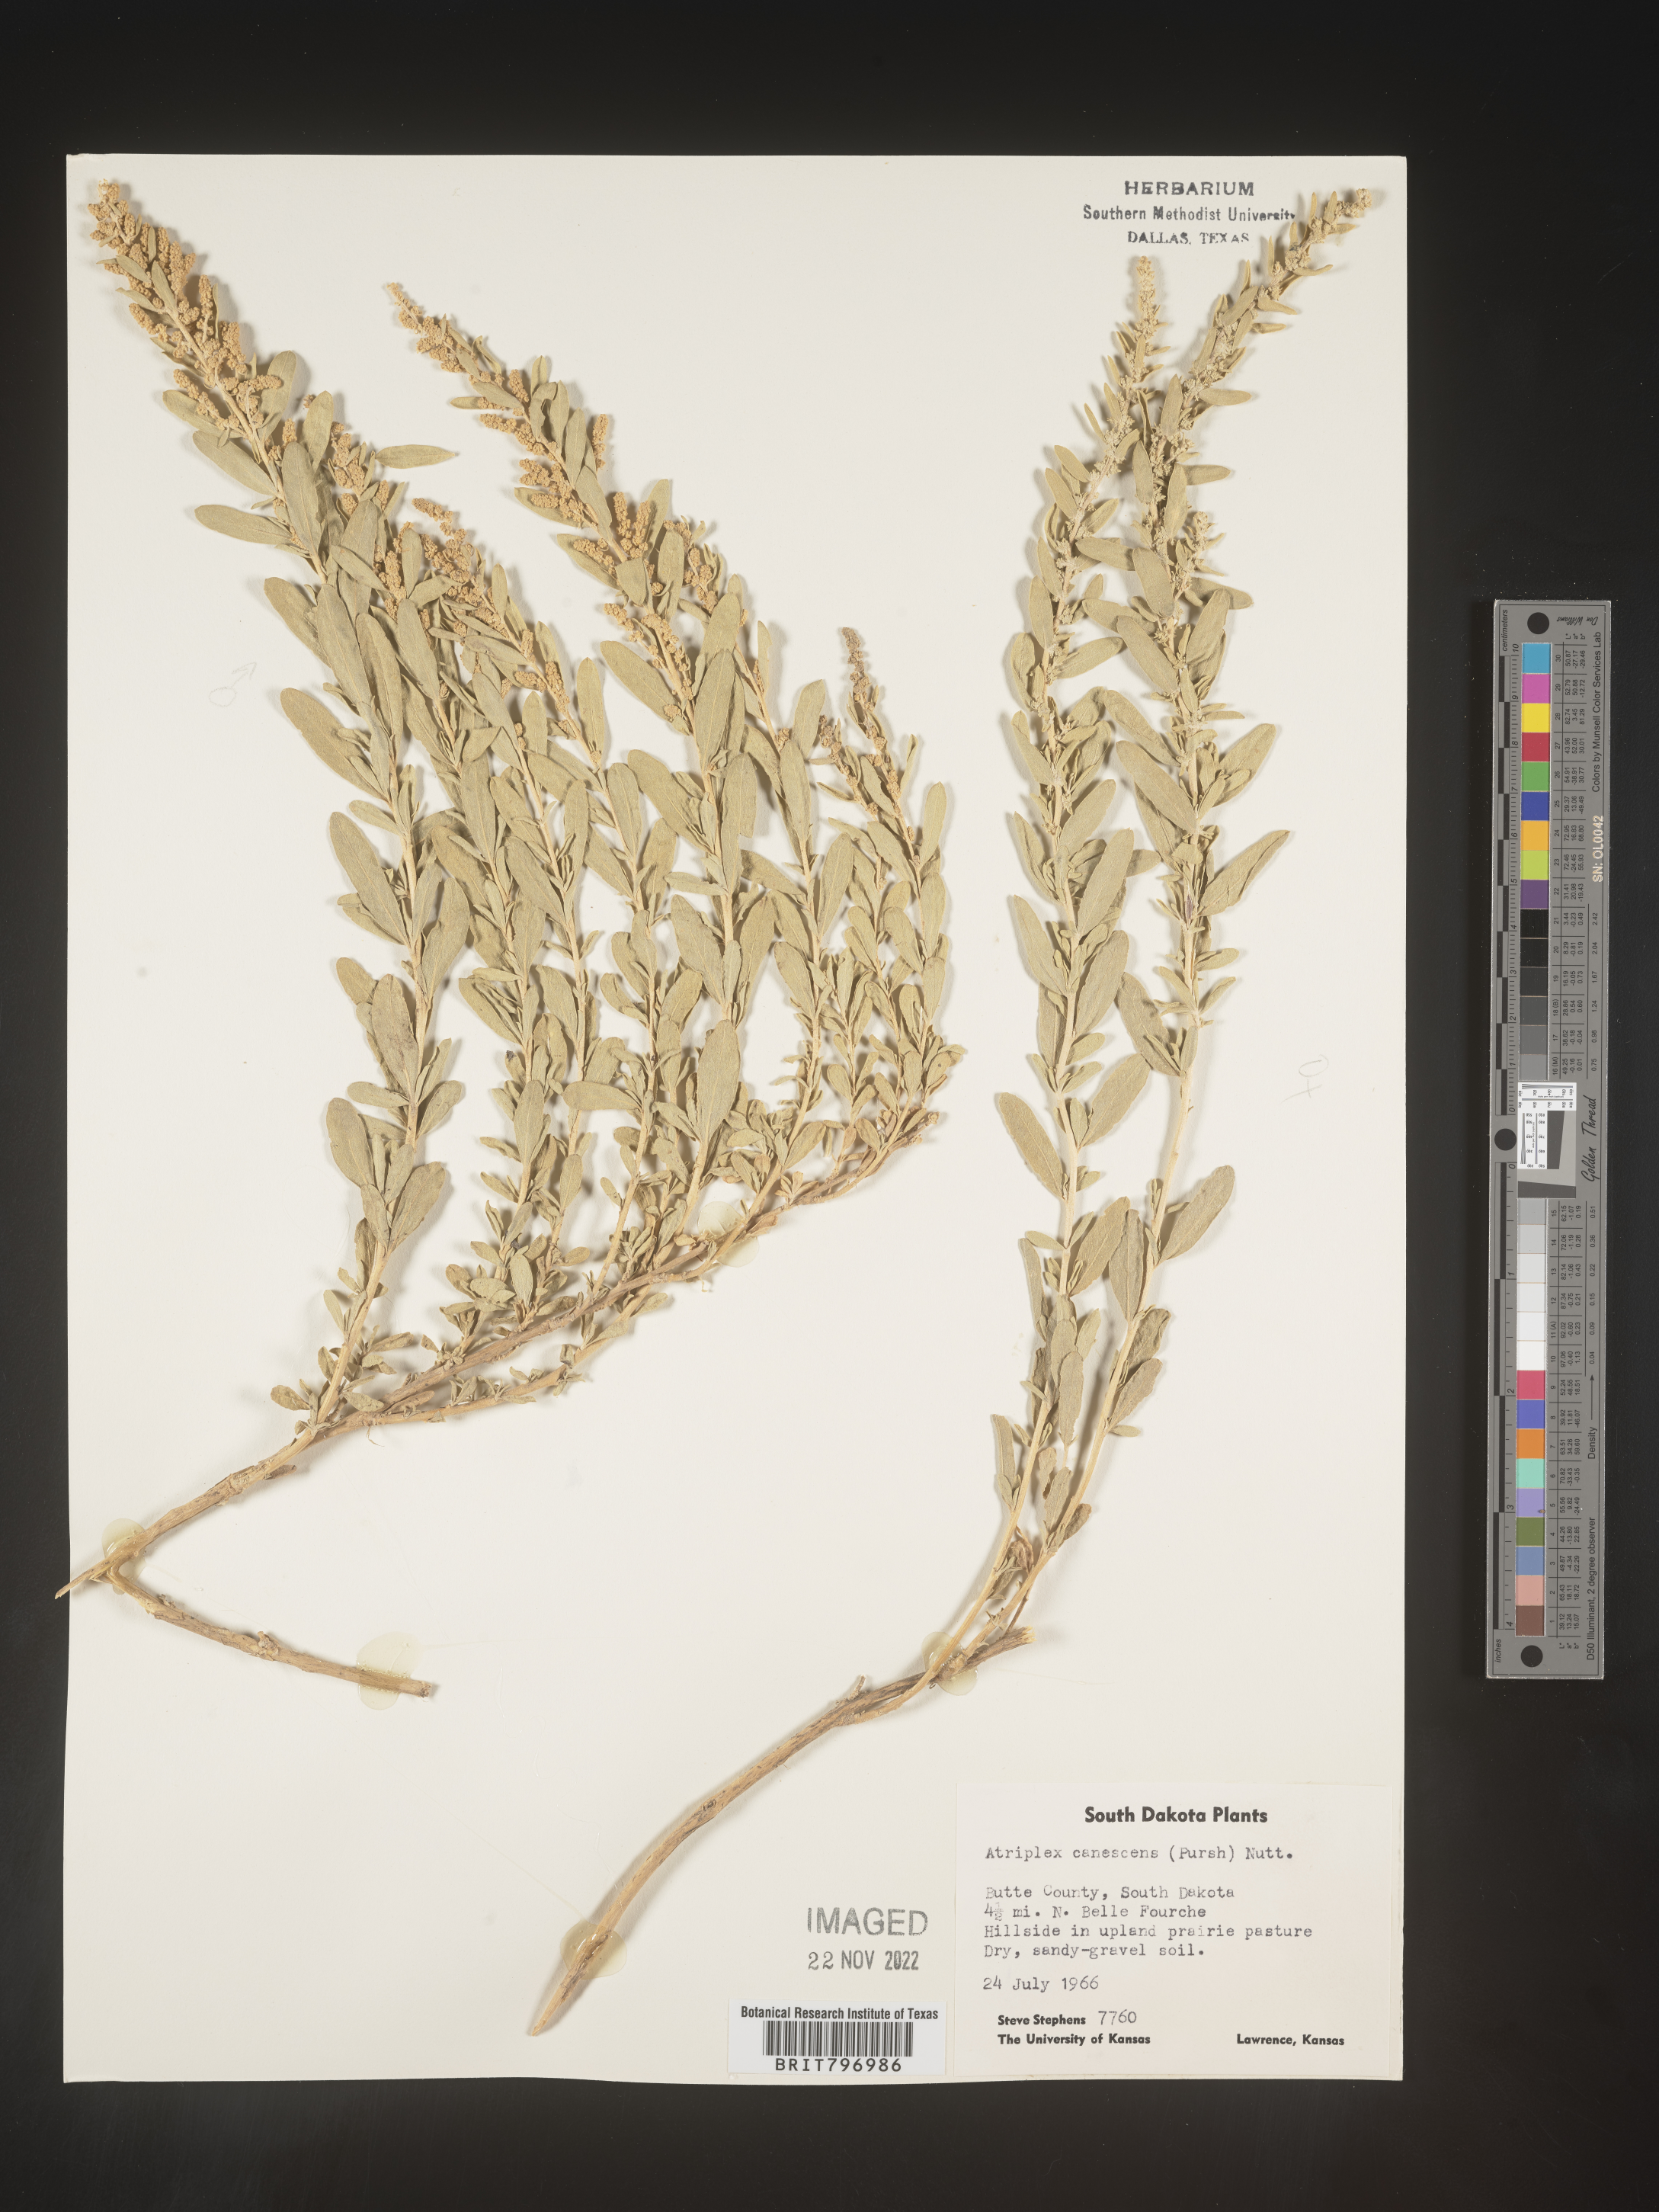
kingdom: Plantae
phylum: Tracheophyta
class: Magnoliopsida
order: Caryophyllales
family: Amaranthaceae
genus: Atriplex
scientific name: Atriplex canescens
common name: Four-wing saltbush
